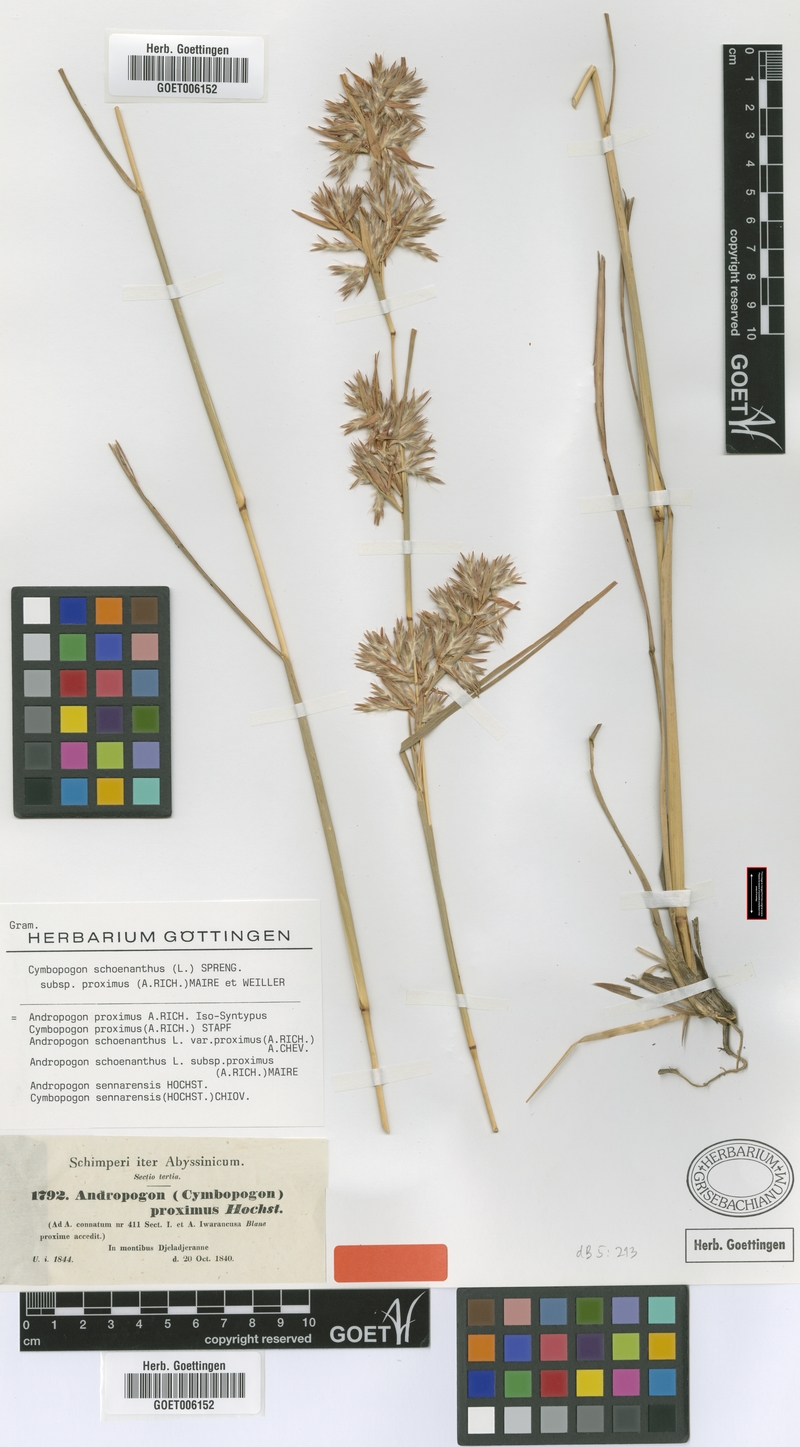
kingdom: Plantae
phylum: Tracheophyta
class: Liliopsida
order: Poales
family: Poaceae
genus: Cymbopogon
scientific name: Cymbopogon schoenanthus
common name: Geranium grass
